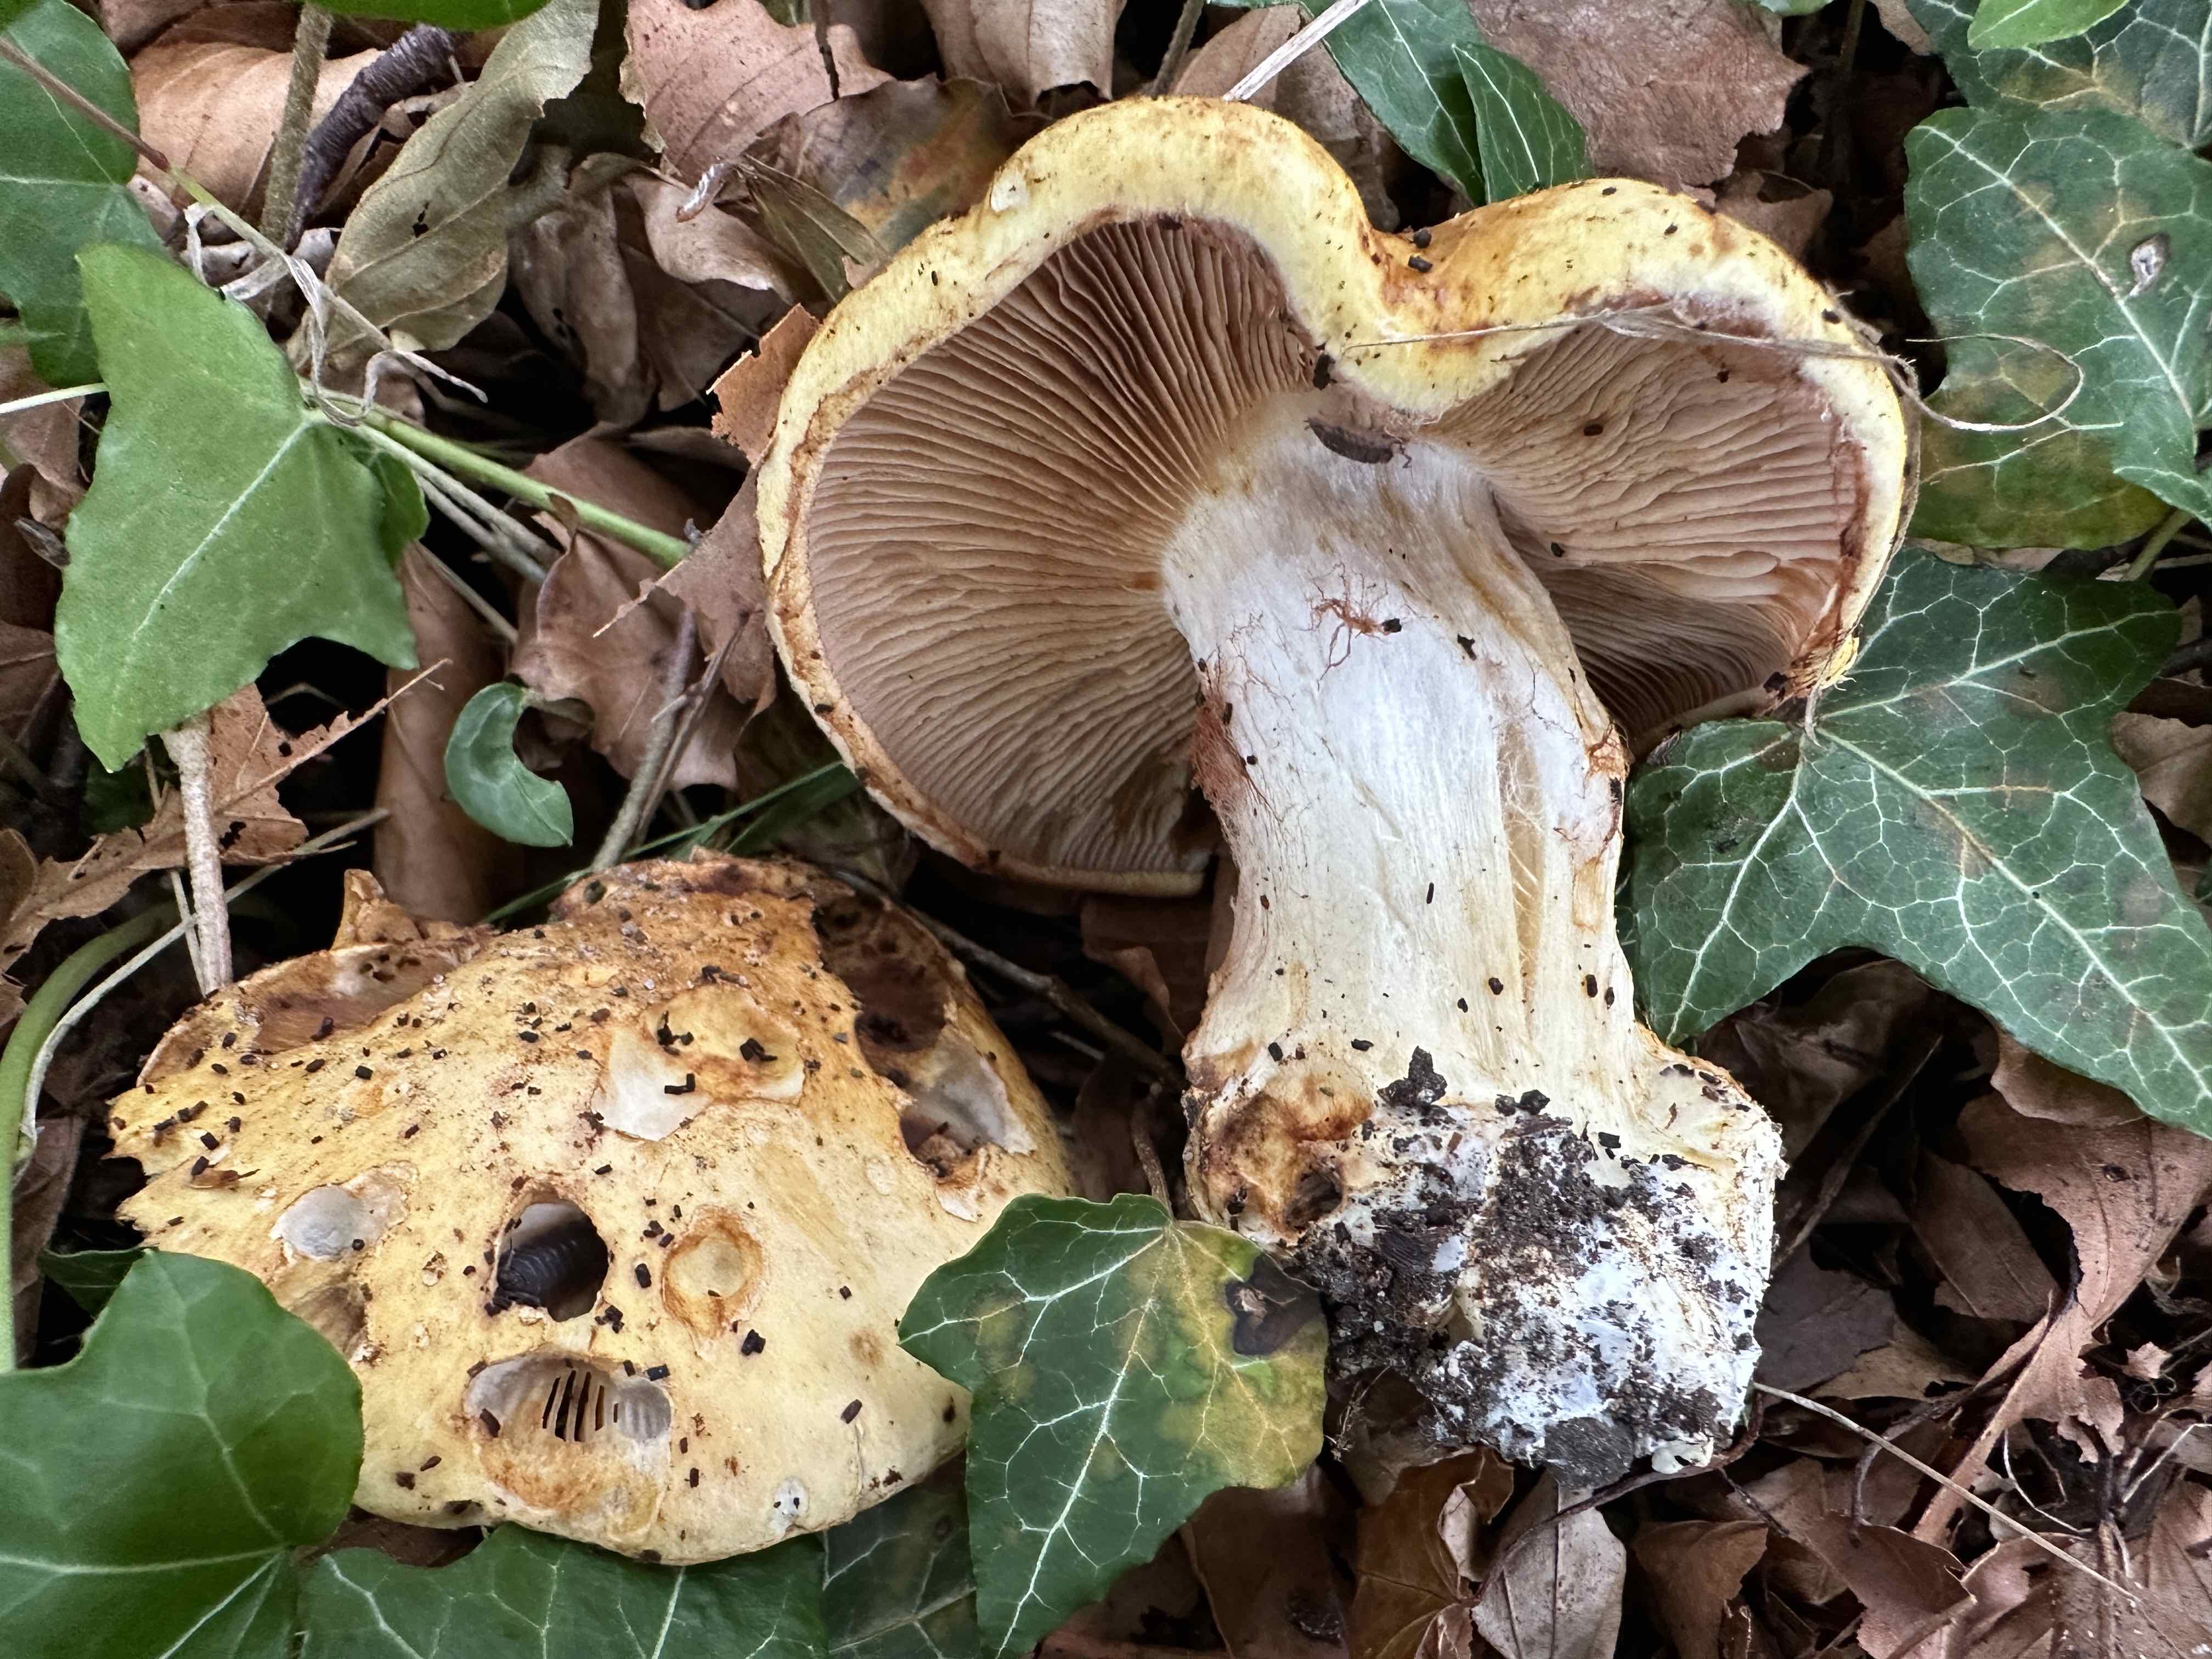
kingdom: Fungi
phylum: Basidiomycota
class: Agaricomycetes
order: Agaricales
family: Cortinariaceae
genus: Phlegmacium
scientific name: Phlegmacium caesiocortinatum
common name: rundsporet slørhat
